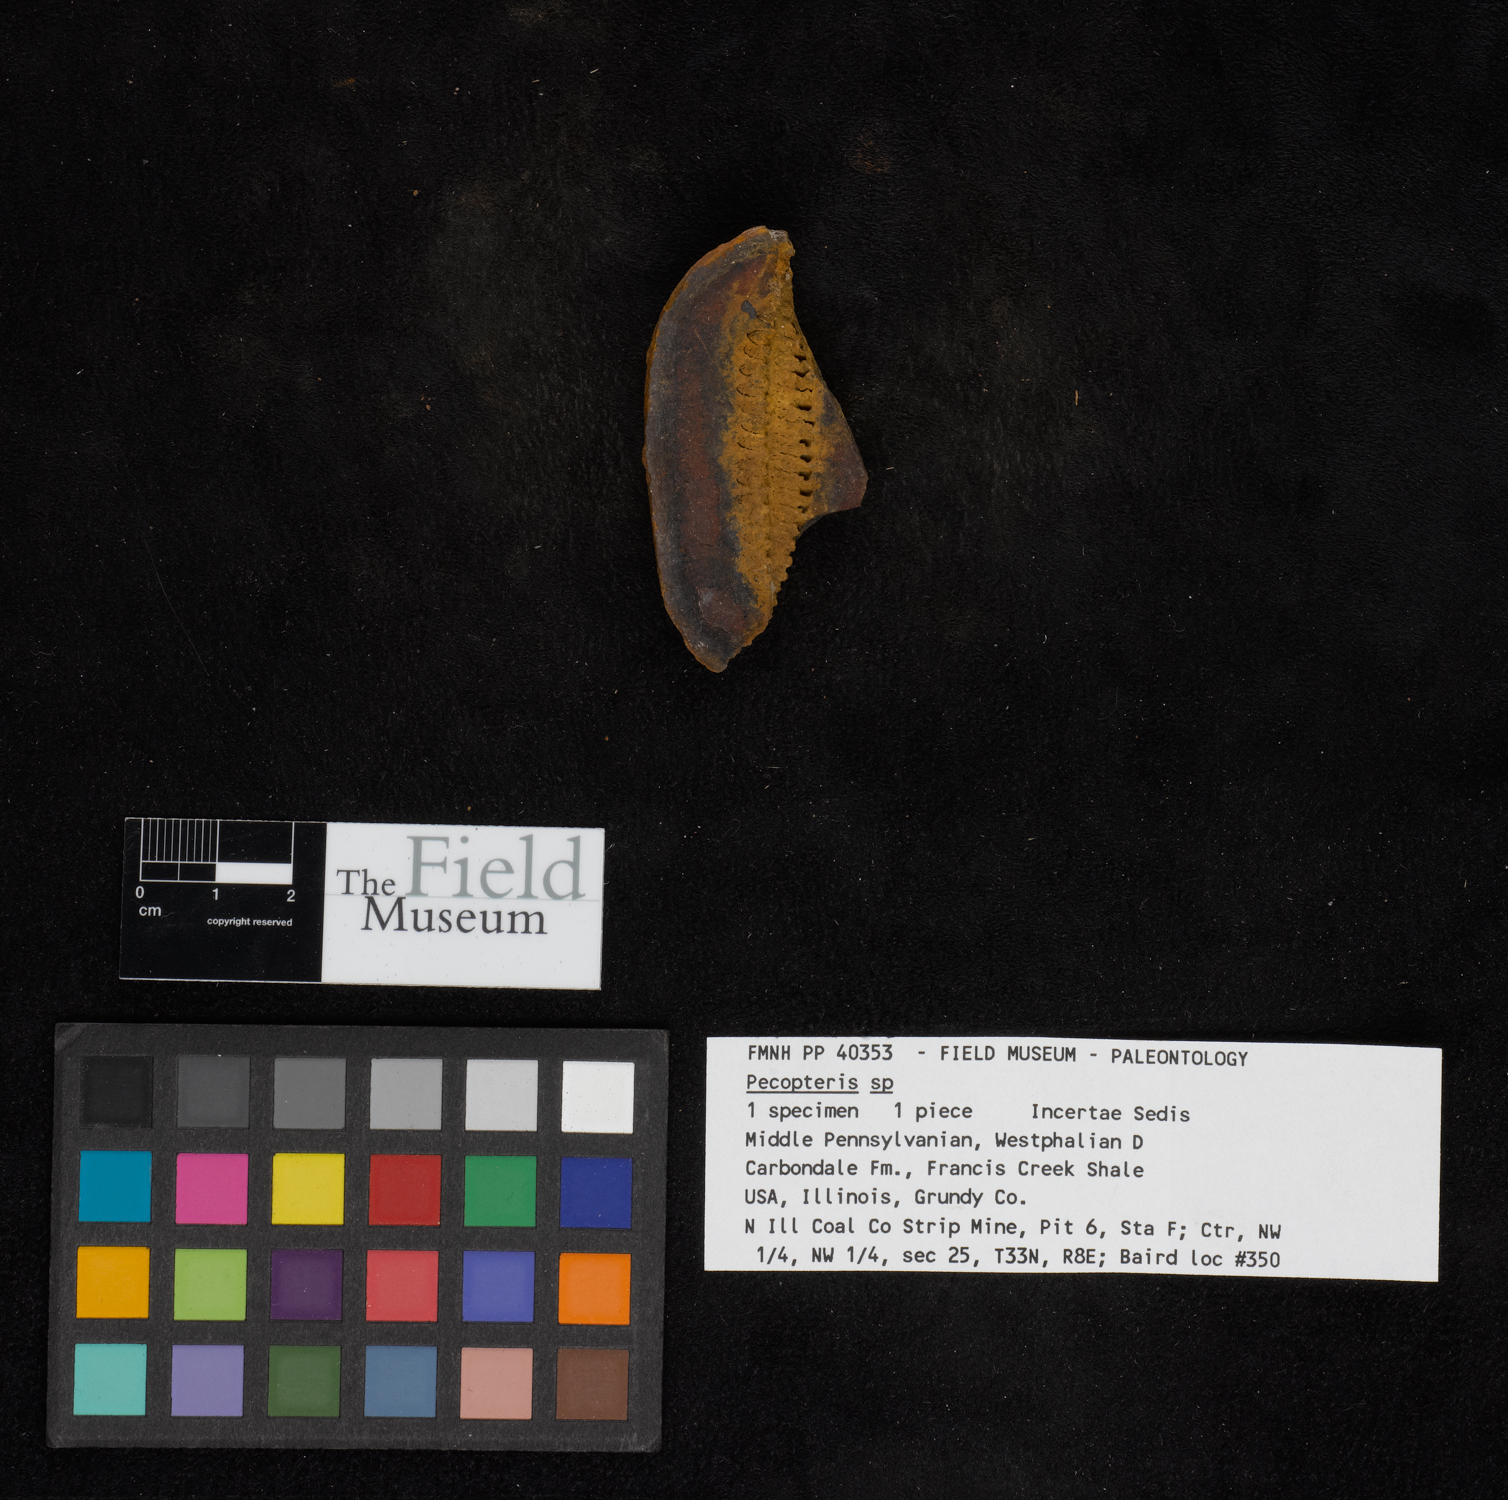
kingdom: Plantae
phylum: Tracheophyta
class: Polypodiopsida
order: Marattiales
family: Asterothecaceae
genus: Pecopteris
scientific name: Pecopteris
